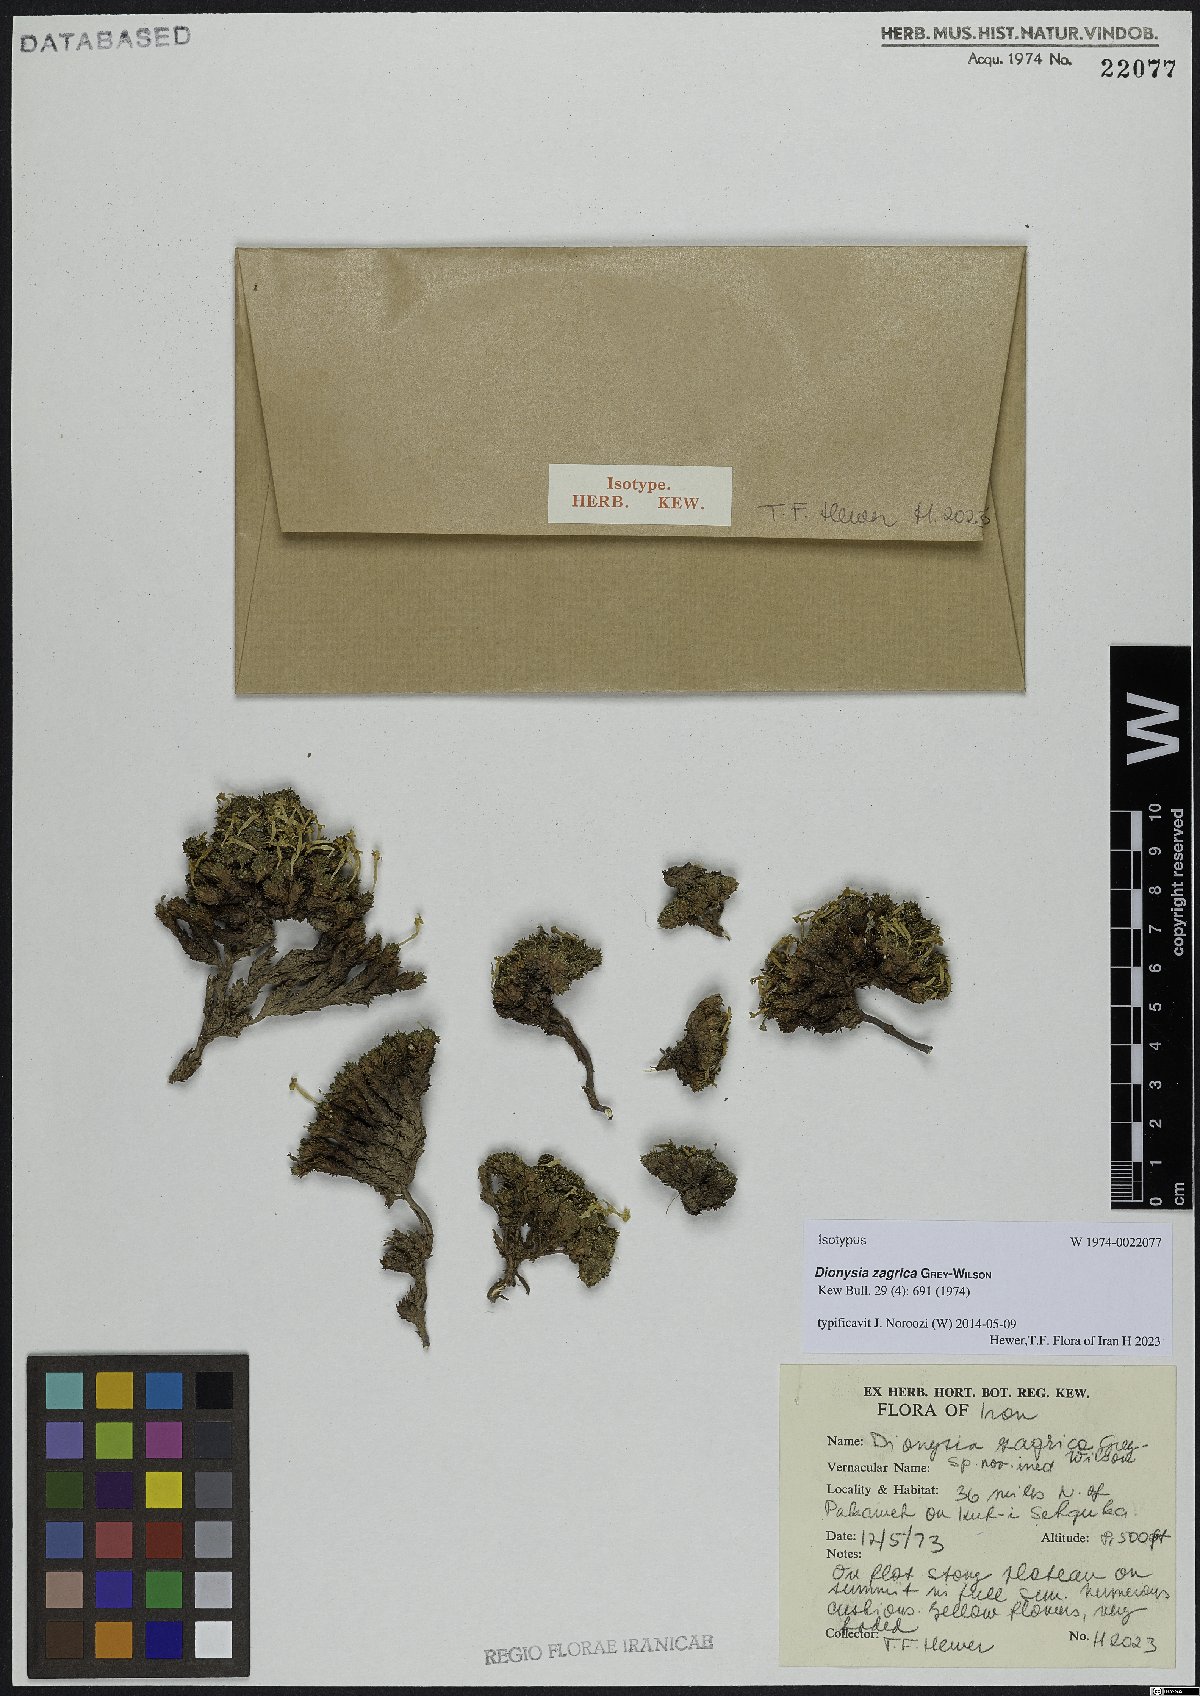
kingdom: Plantae
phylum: Tracheophyta
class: Magnoliopsida
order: Ericales
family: Primulaceae
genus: Dionysia
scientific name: Dionysia zagrica
